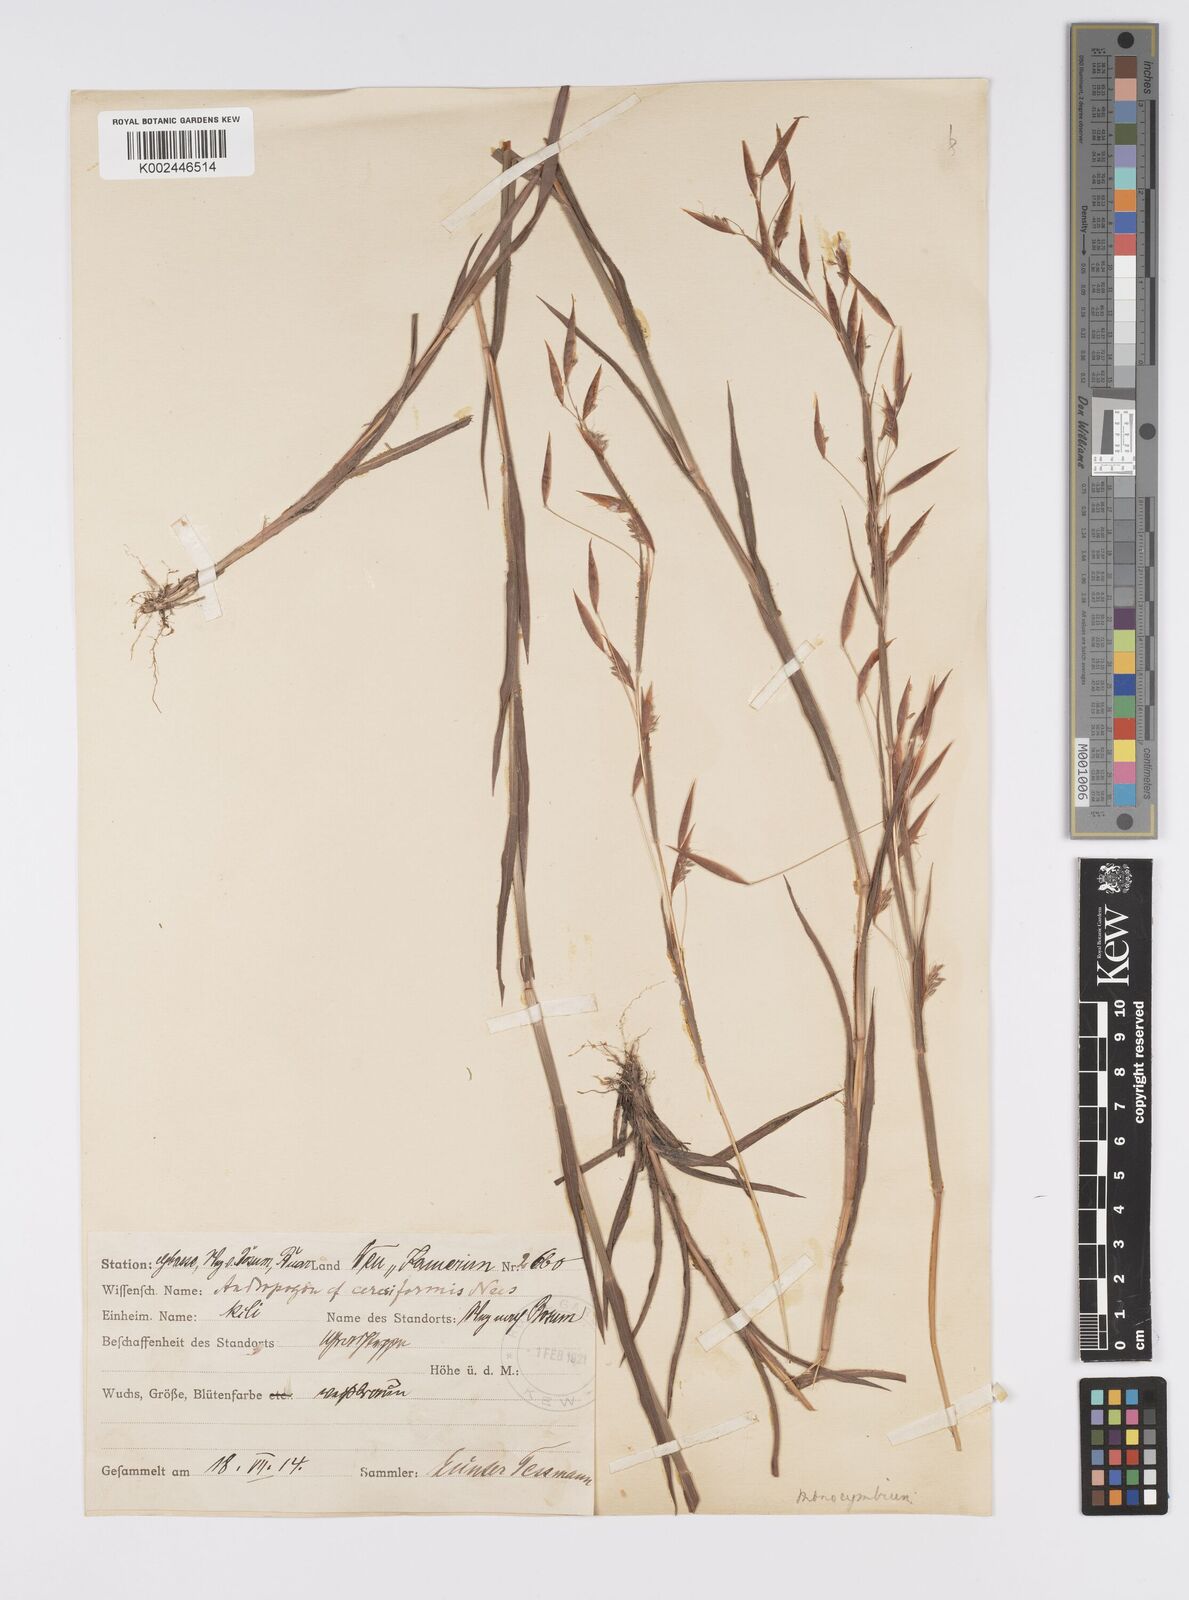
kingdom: Plantae
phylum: Tracheophyta
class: Liliopsida
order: Poales
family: Poaceae
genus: Monocymbium
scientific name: Monocymbium ceresiiforme
